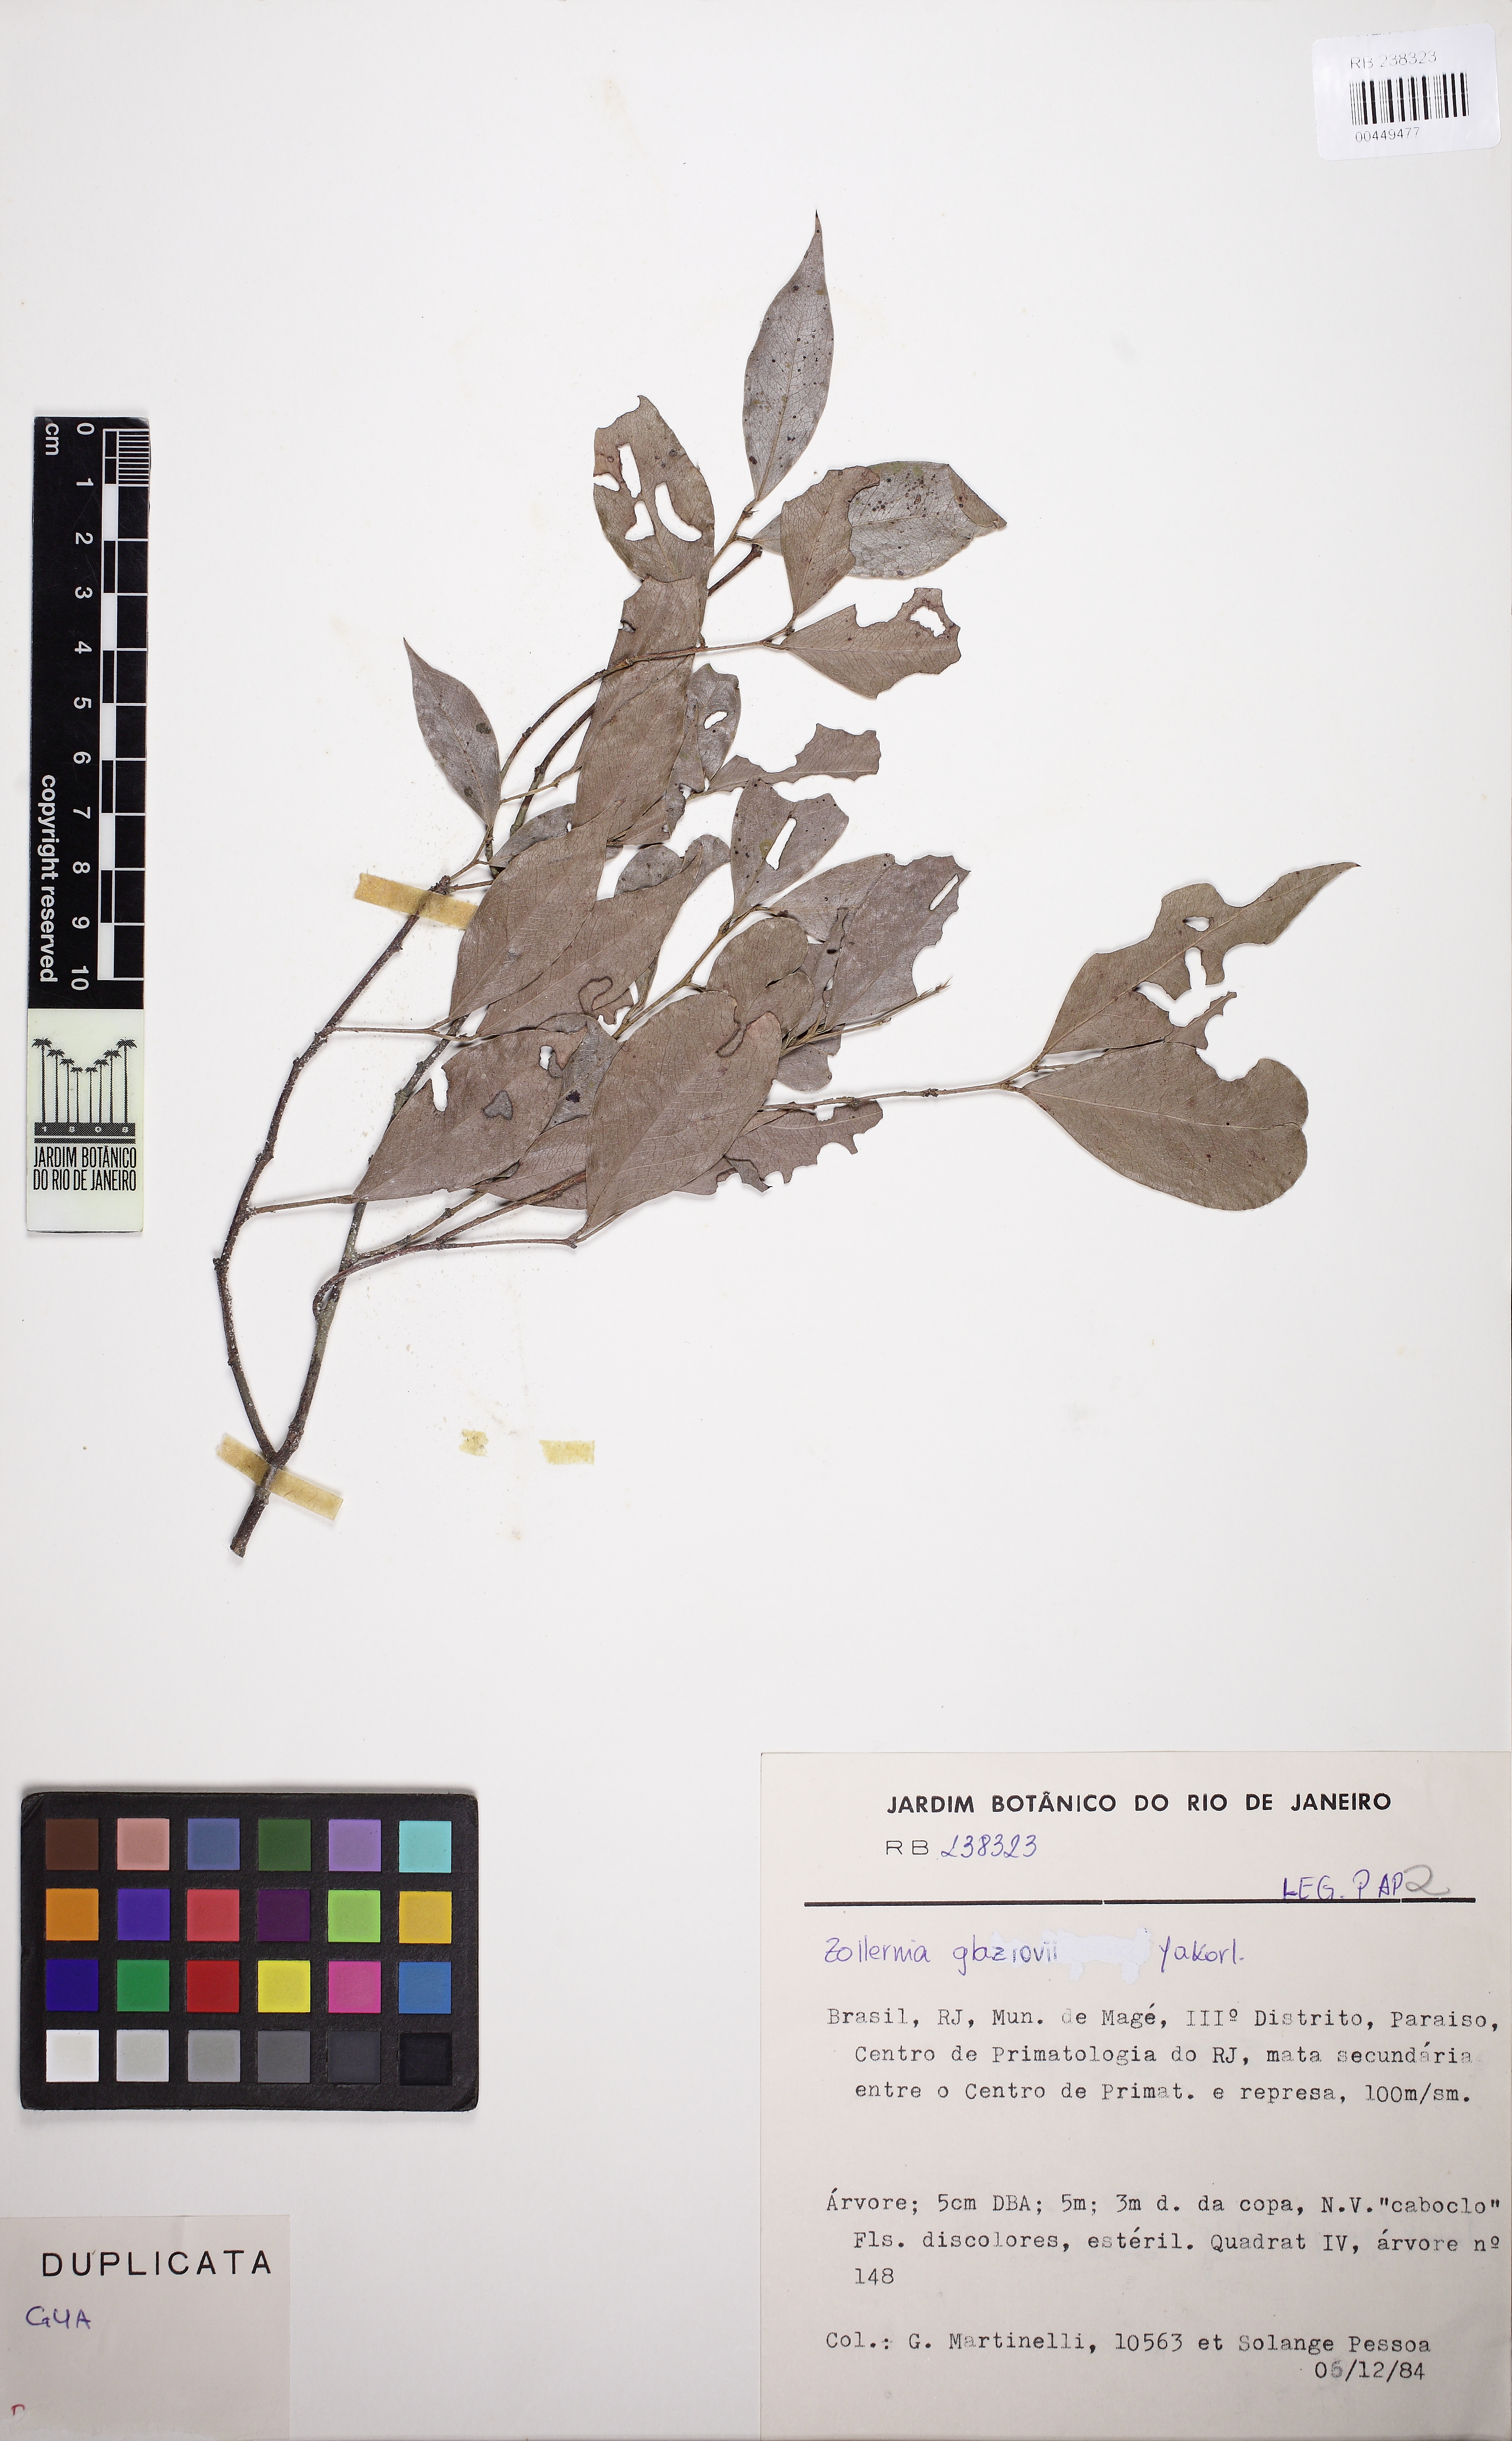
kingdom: Plantae
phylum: Tracheophyta
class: Magnoliopsida
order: Fabales
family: Fabaceae
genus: Zollernia
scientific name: Zollernia glaziovii
